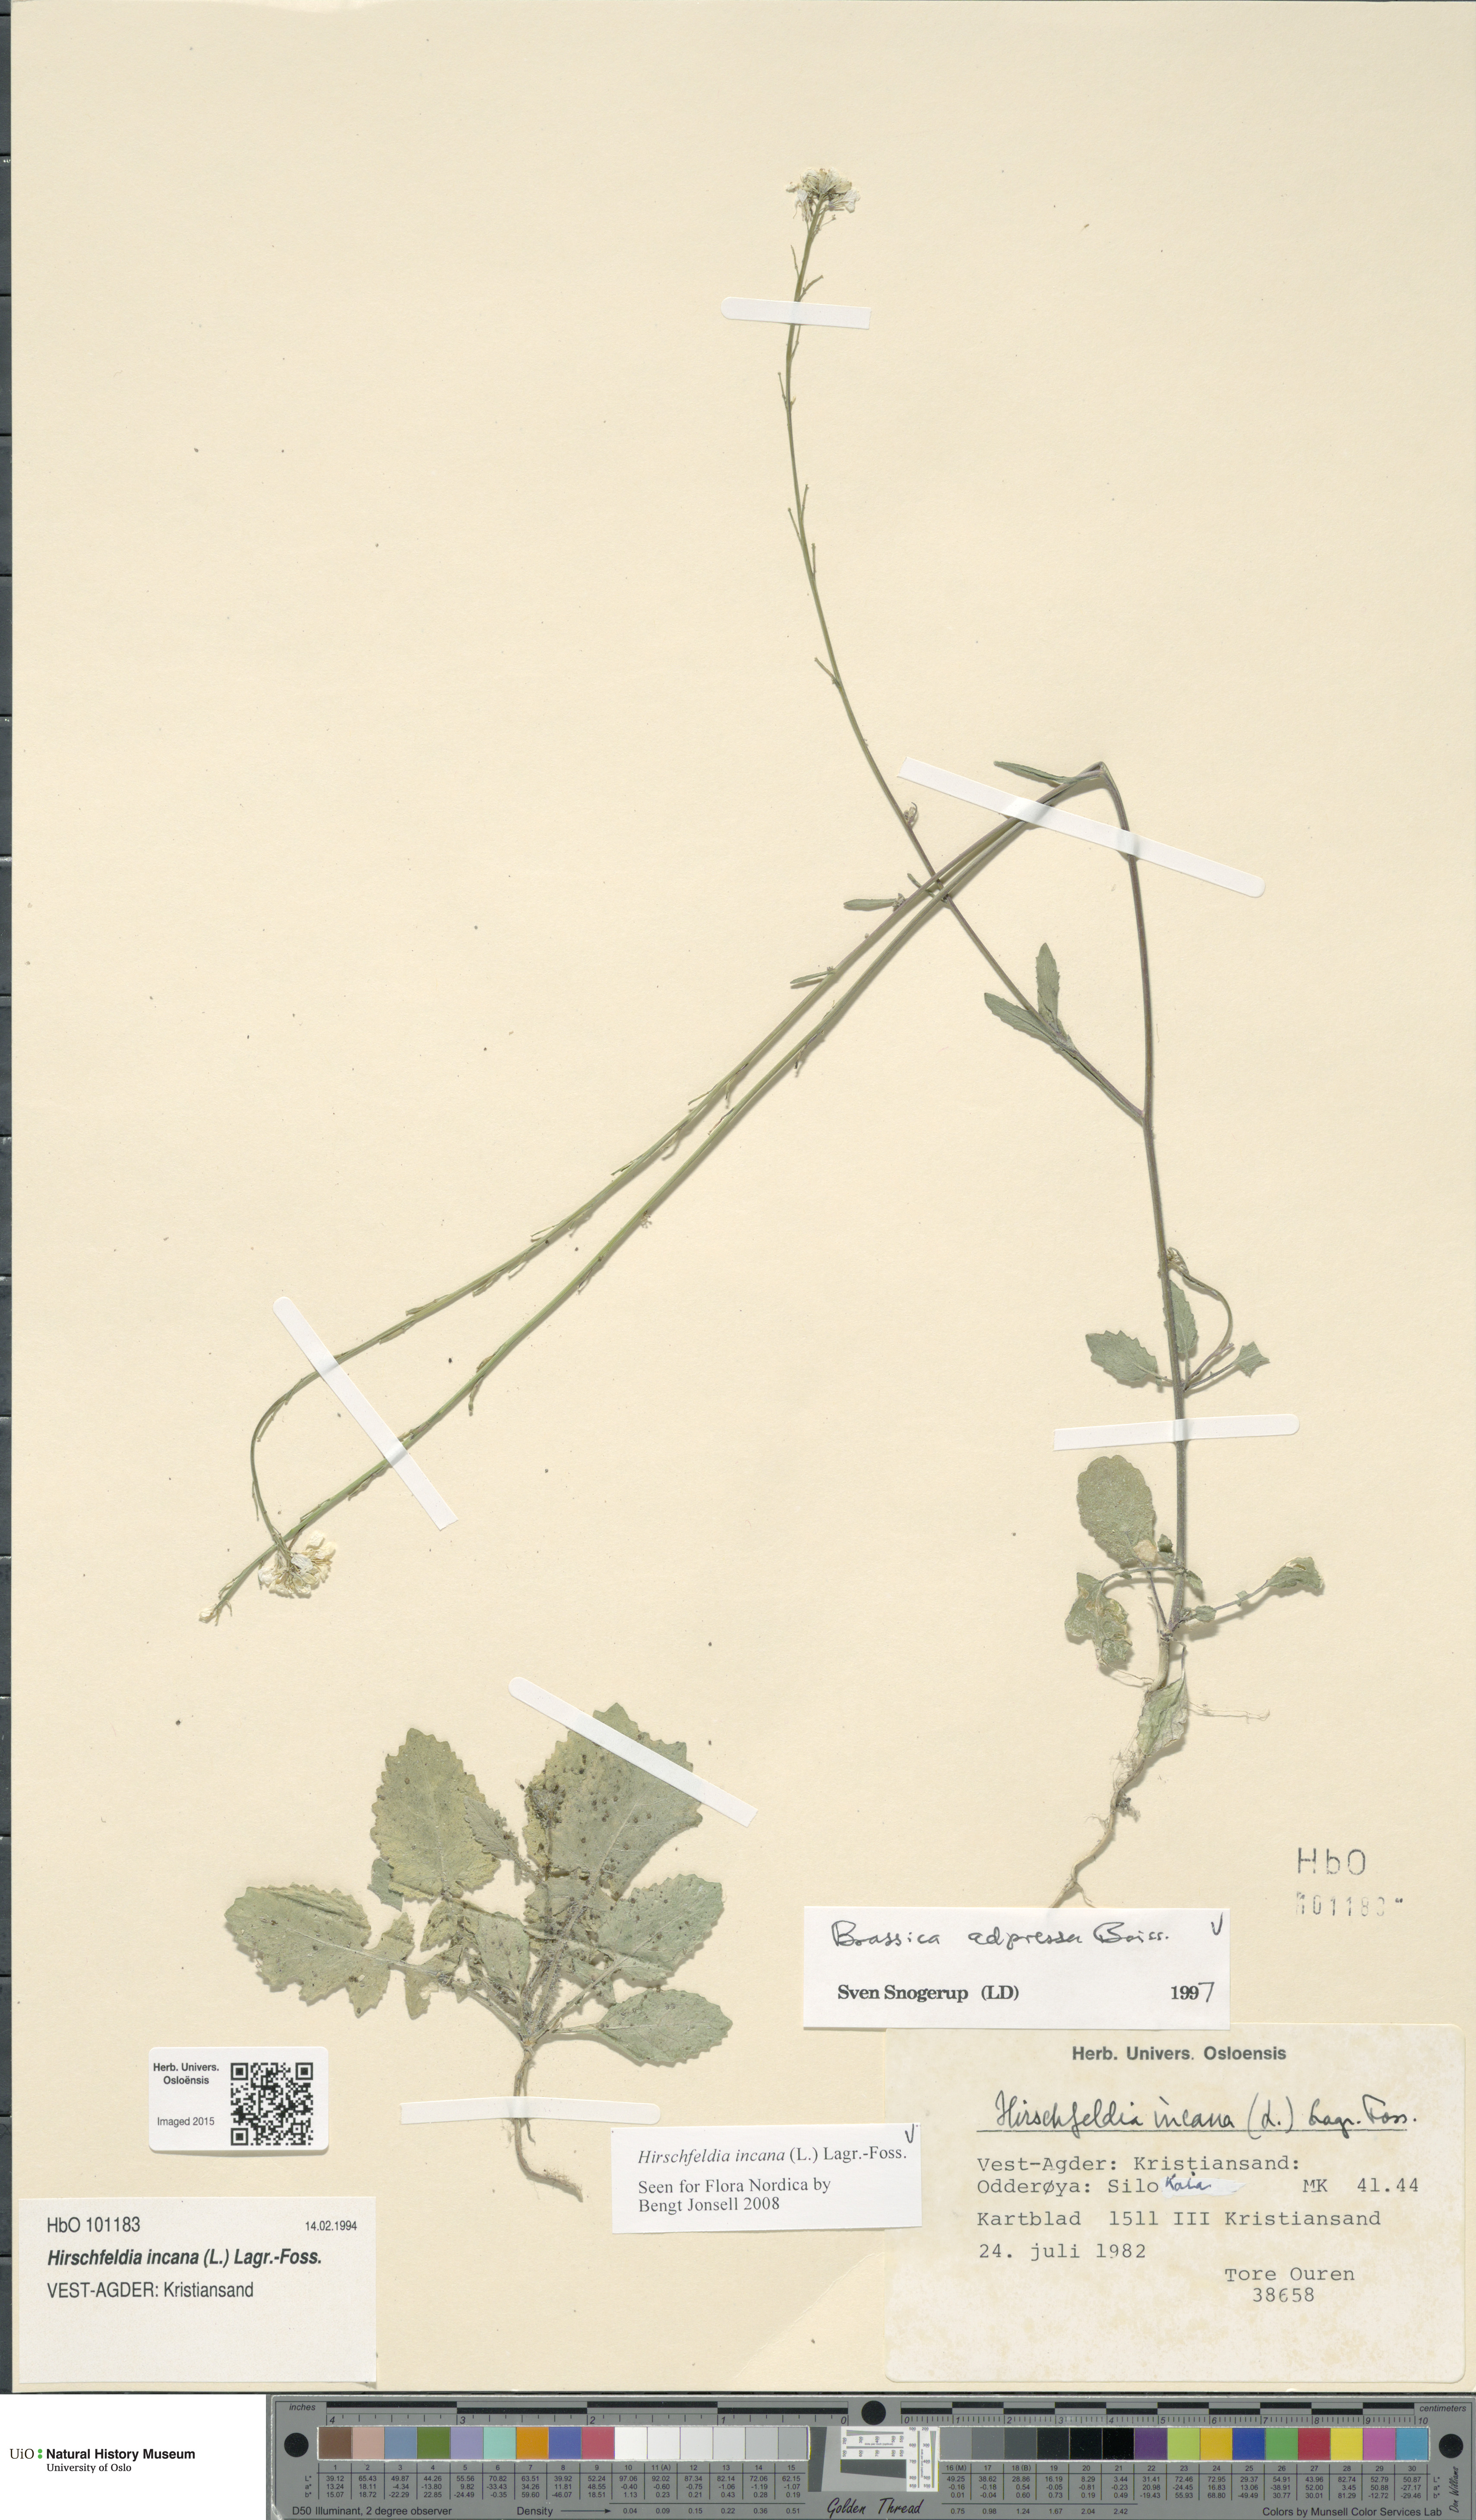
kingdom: Plantae
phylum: Tracheophyta
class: Magnoliopsida
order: Brassicales
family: Brassicaceae
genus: Hirschfeldia
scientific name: Hirschfeldia incana
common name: Hoary mustard
